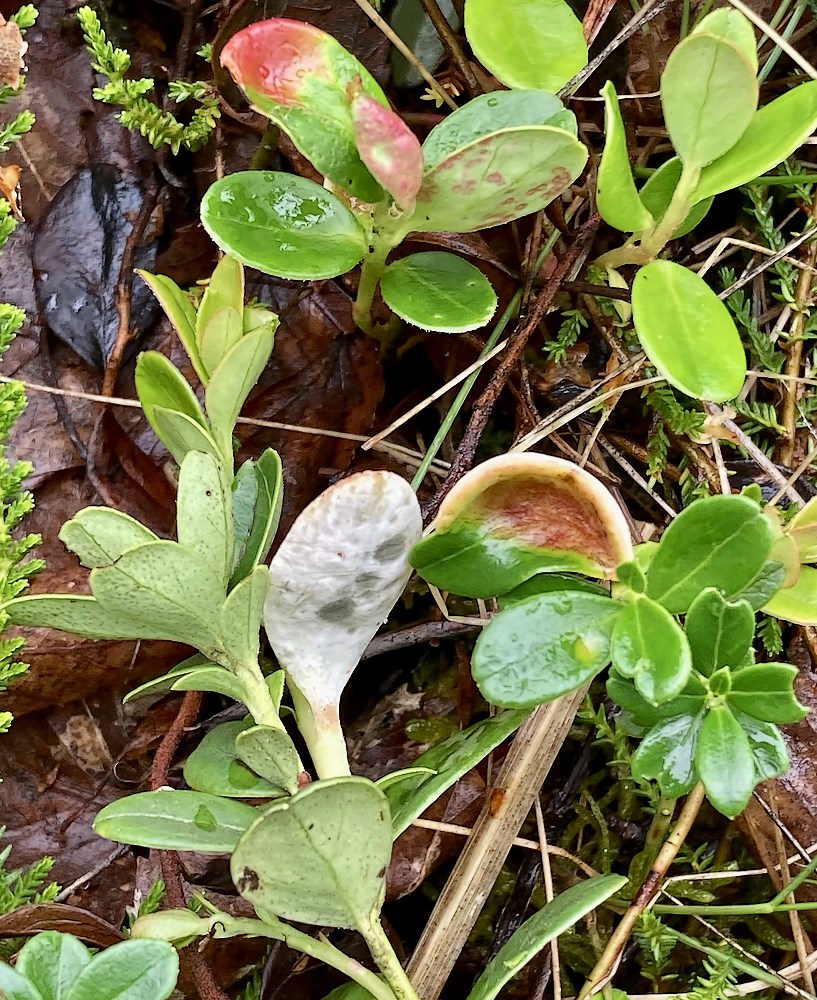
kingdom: Fungi
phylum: Basidiomycota
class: Exobasidiomycetes
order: Exobasidiales
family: Exobasidiaceae
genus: Exobasidium
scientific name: Exobasidium vaccinii
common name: tyttebærblad-bøllesvamp
